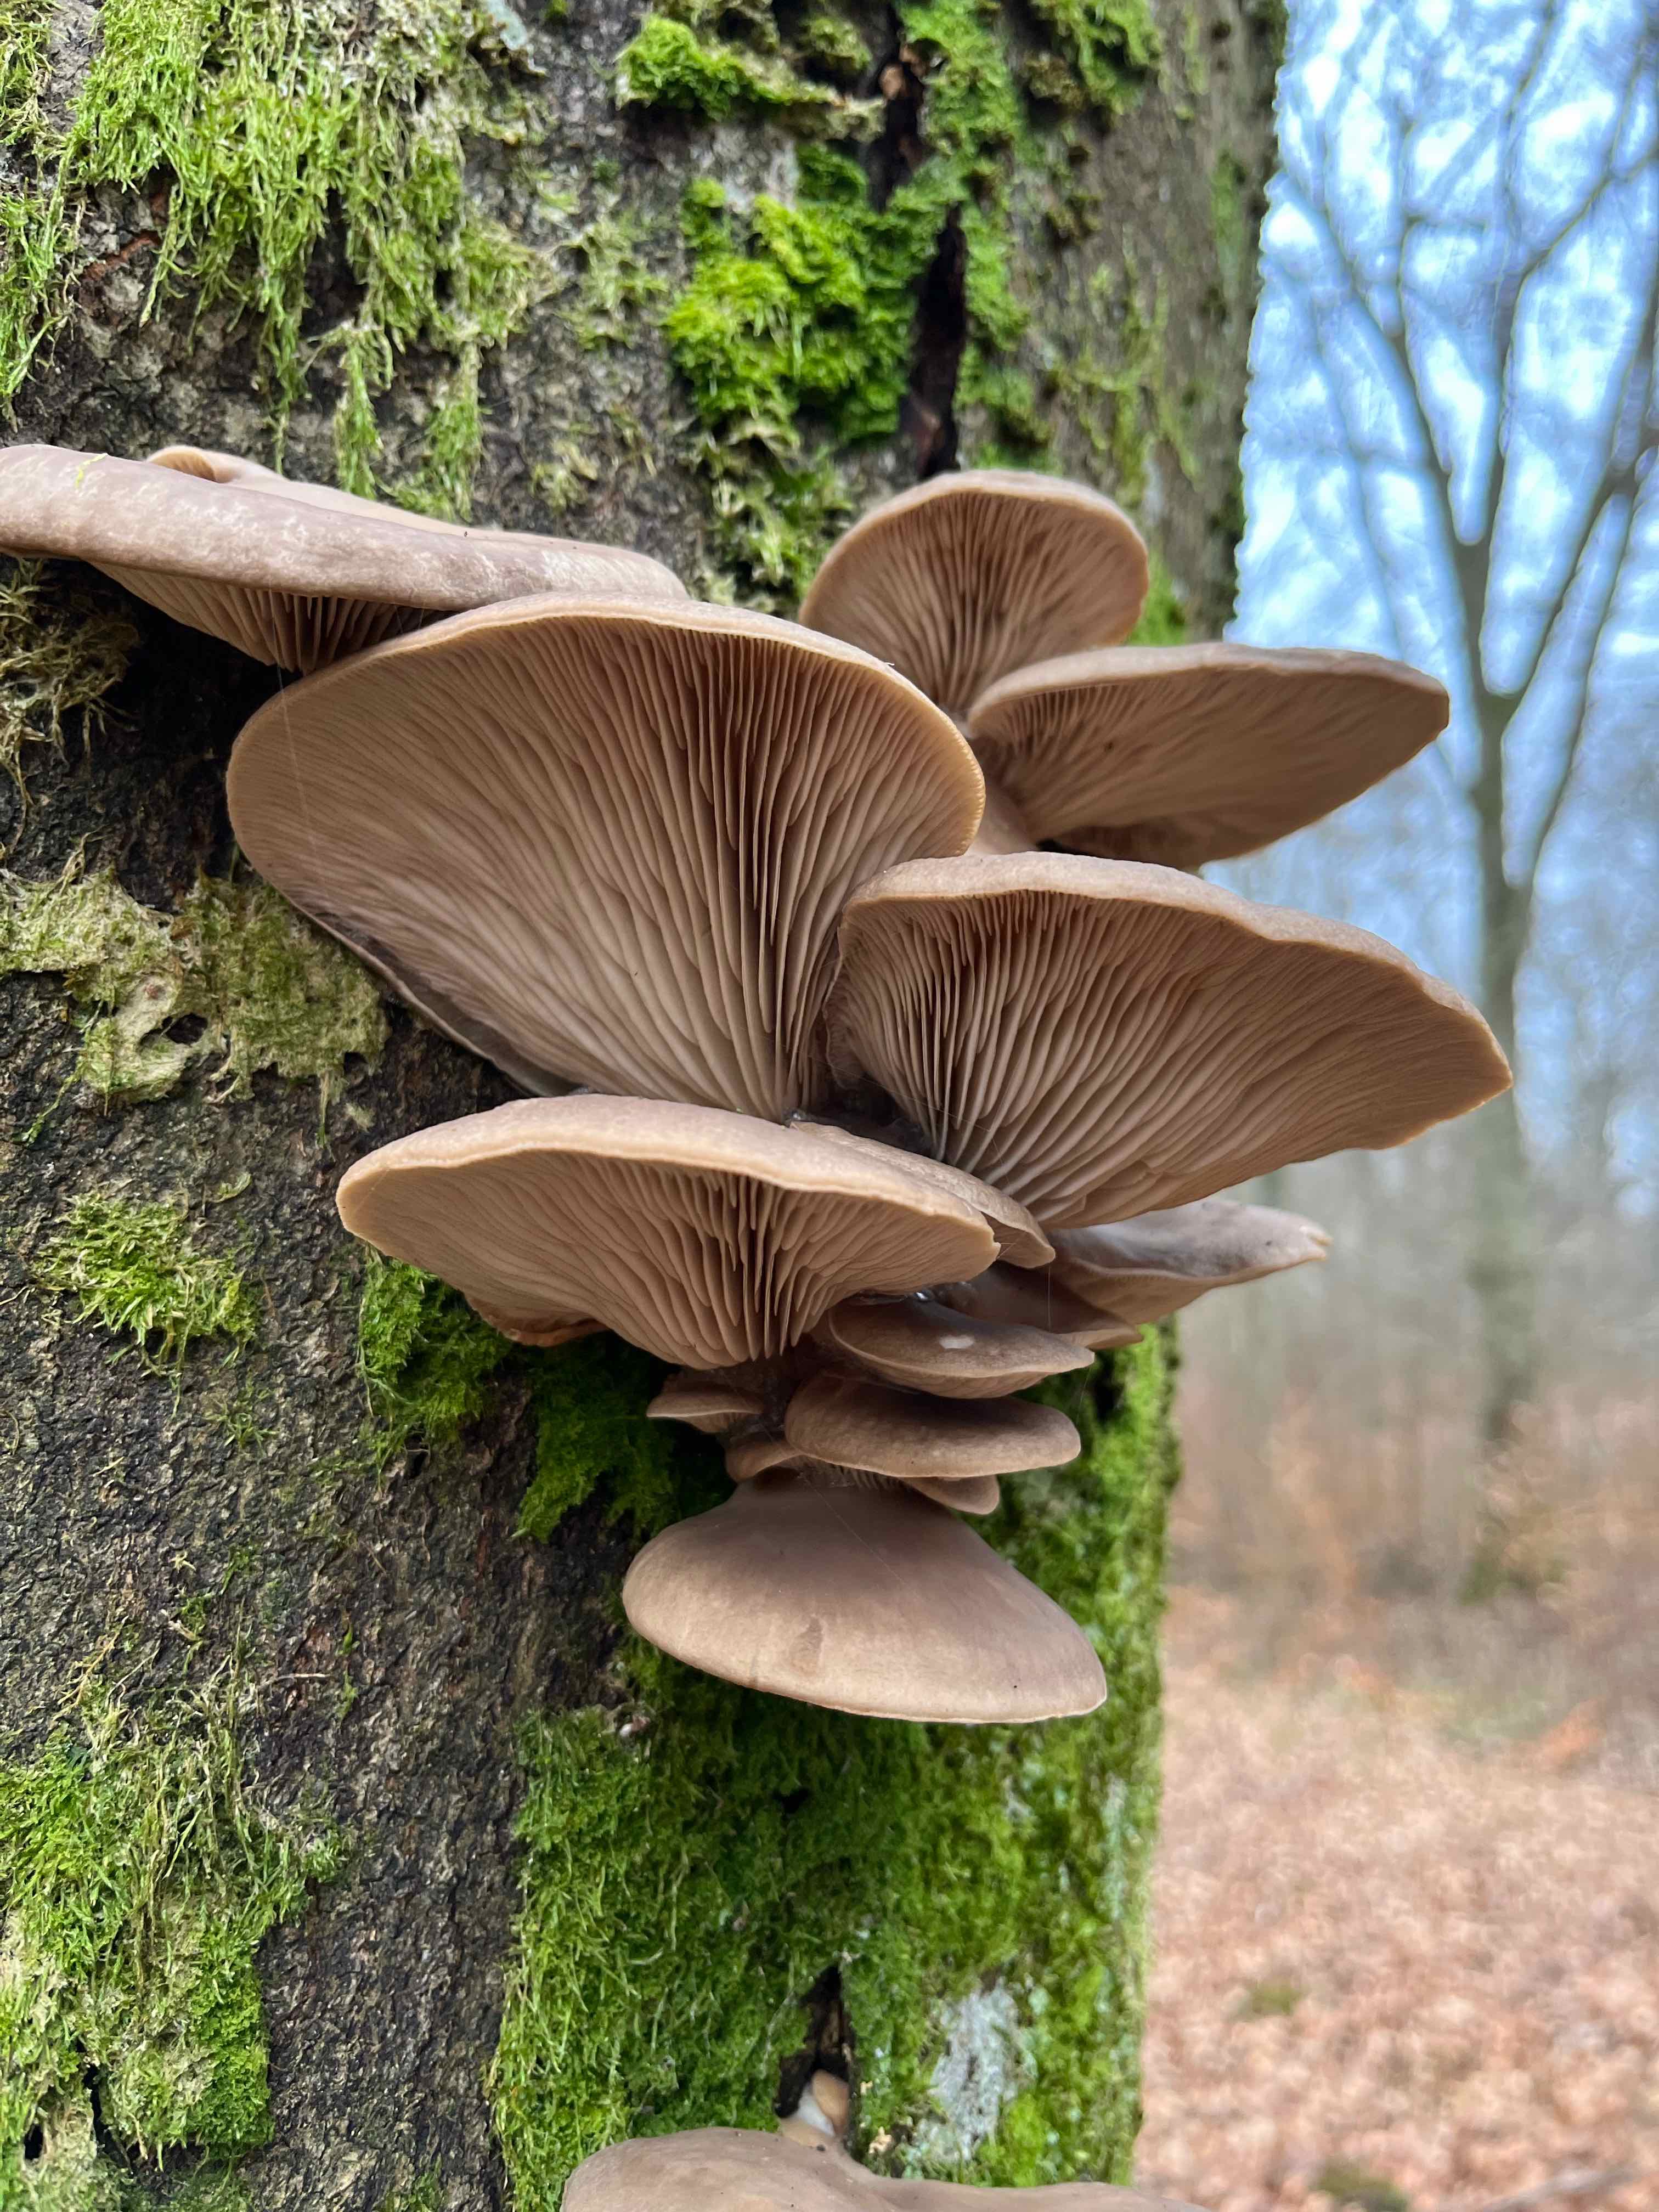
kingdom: Fungi
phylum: Basidiomycota
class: Agaricomycetes
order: Agaricales
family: Pleurotaceae
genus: Pleurotus
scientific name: Pleurotus ostreatus
